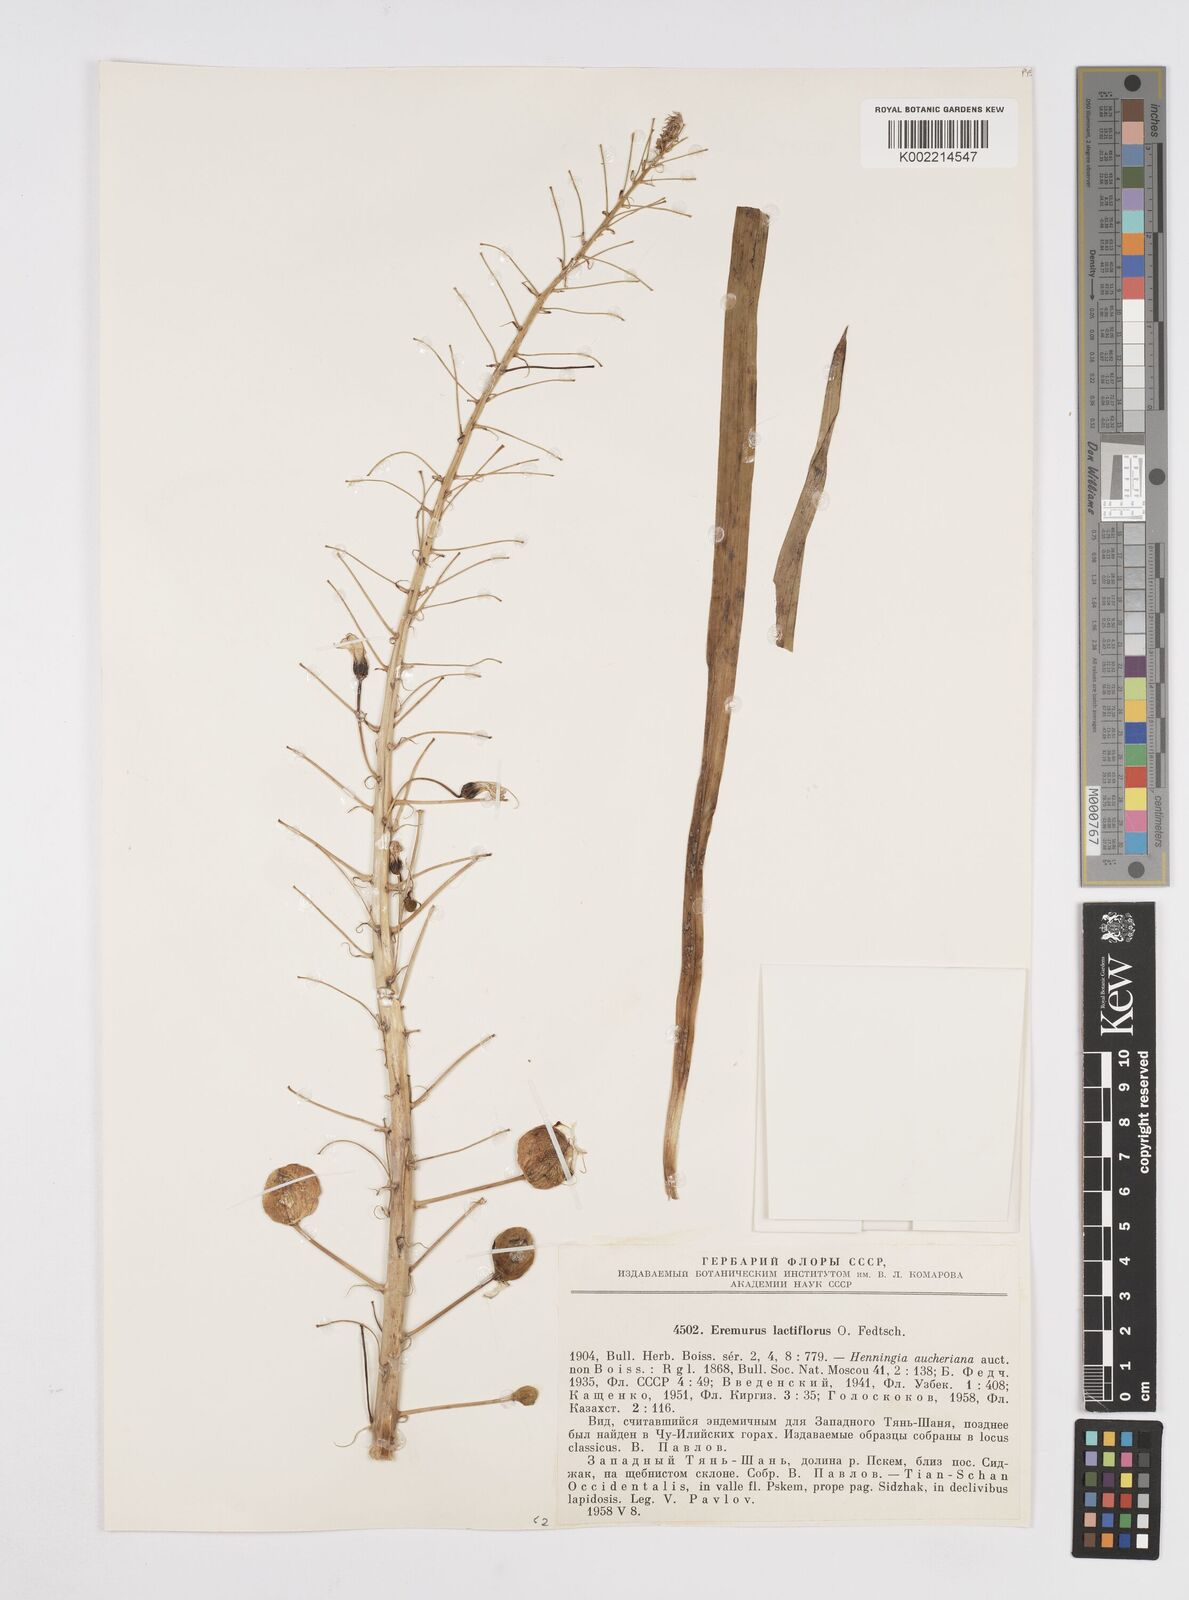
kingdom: Plantae
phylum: Tracheophyta
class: Liliopsida
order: Asparagales
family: Asphodelaceae
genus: Eremurus
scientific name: Eremurus lactiflorus
